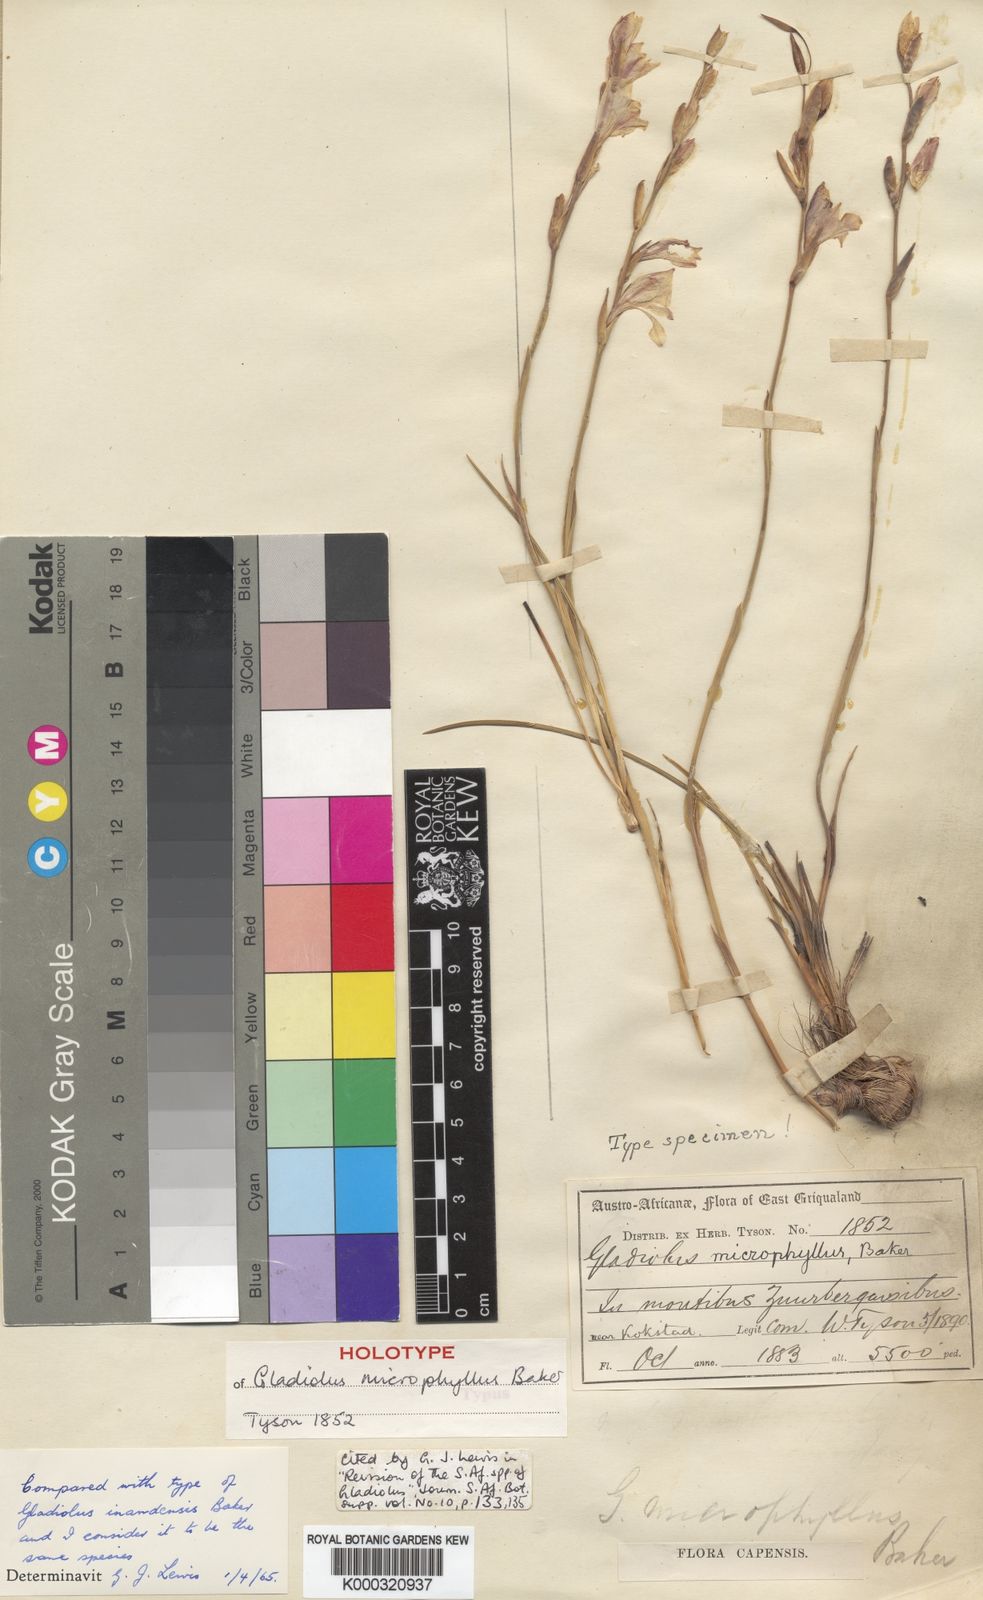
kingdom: Plantae
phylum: Tracheophyta
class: Liliopsida
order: Asparagales
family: Iridaceae
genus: Gladiolus
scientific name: Gladiolus inandensis
